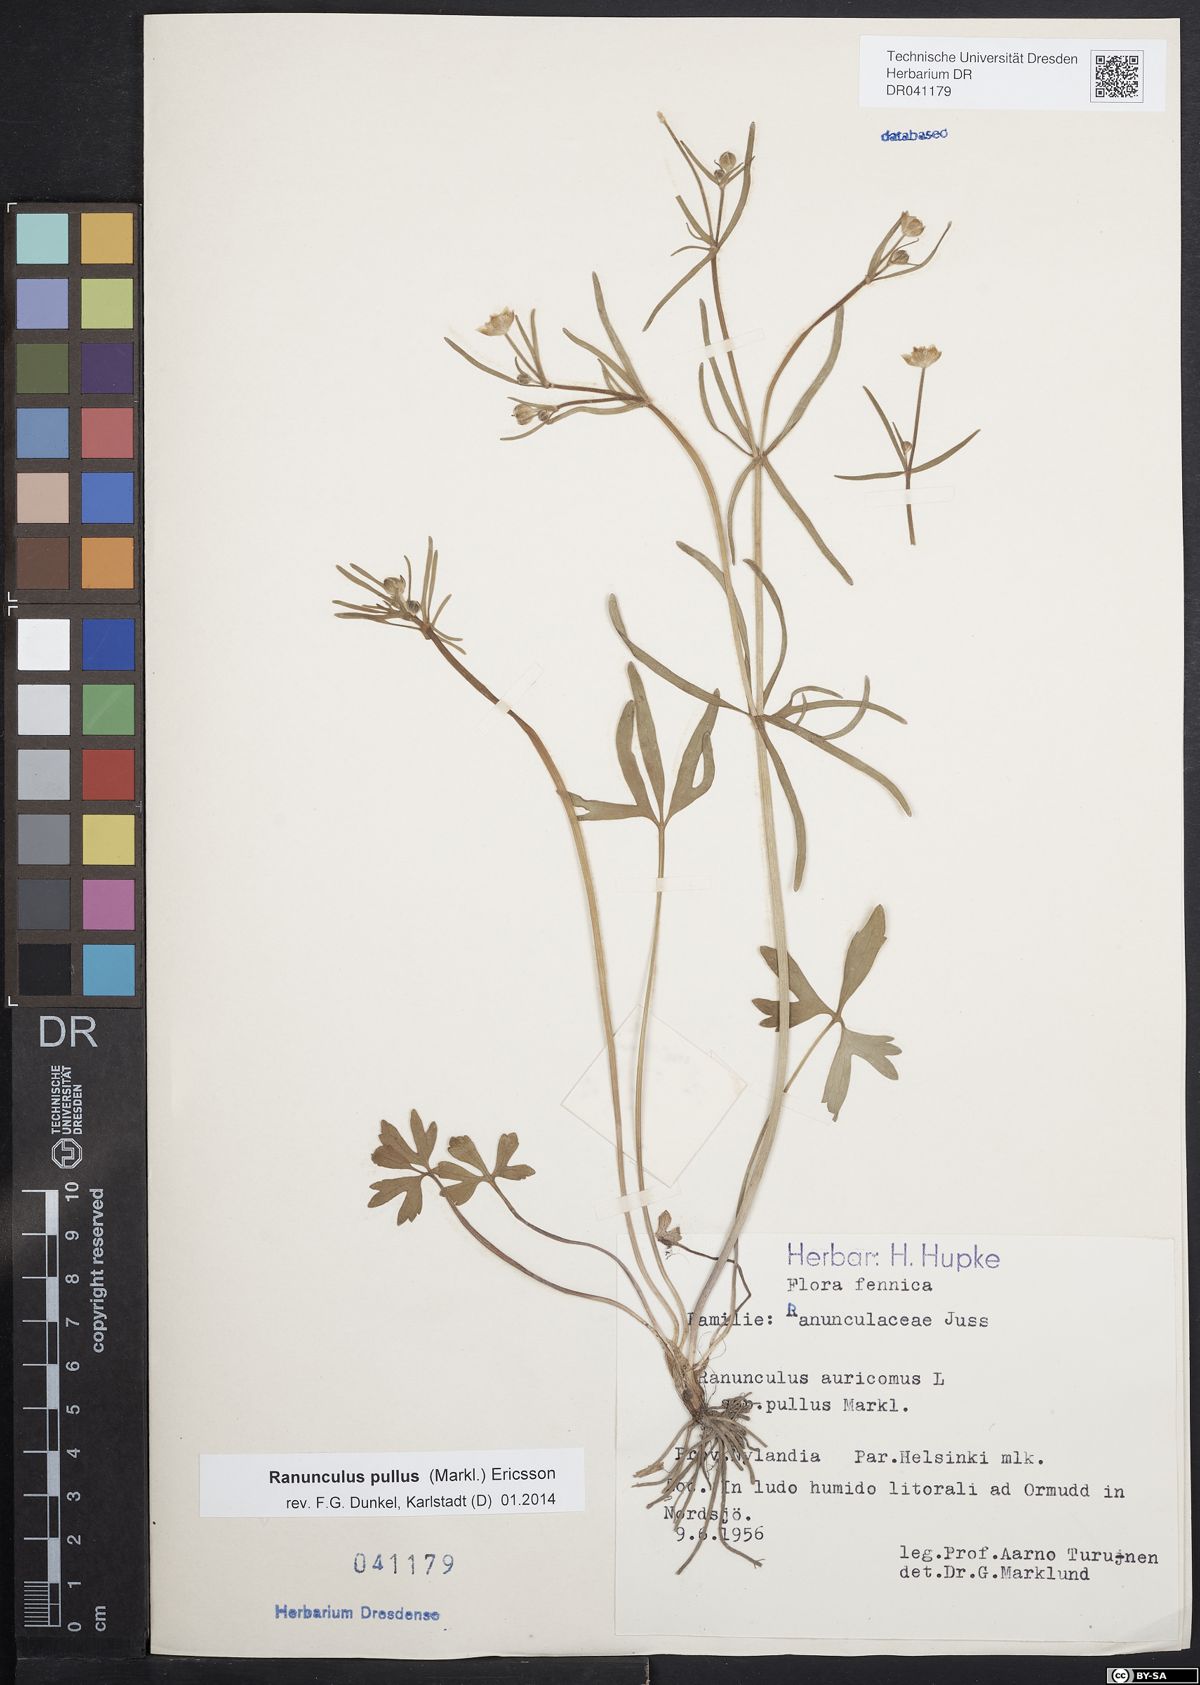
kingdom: Plantae
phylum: Tracheophyta
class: Magnoliopsida
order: Ranunculales
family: Ranunculaceae
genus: Ranunculus
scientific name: Ranunculus pullus
